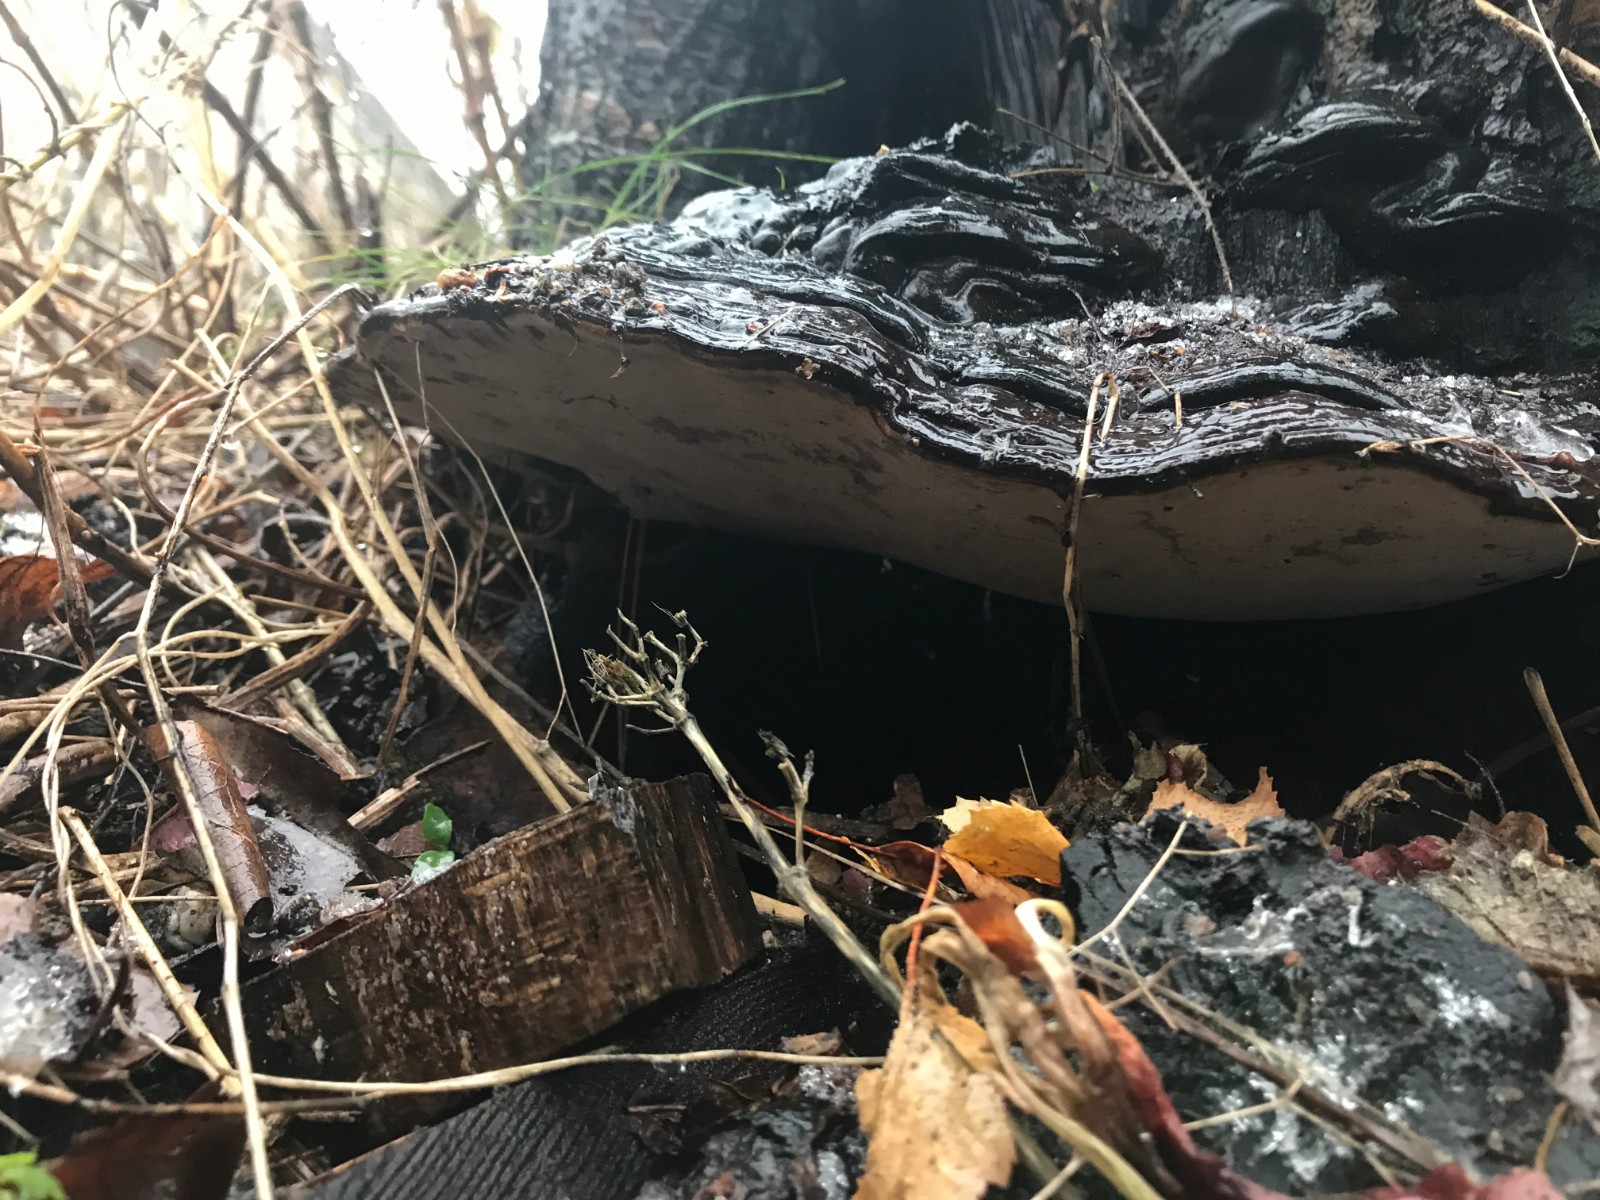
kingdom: Fungi
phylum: Basidiomycota
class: Agaricomycetes
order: Polyporales
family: Polyporaceae
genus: Ganoderma
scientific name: Ganoderma adspersum
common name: grov lakporesvamp
